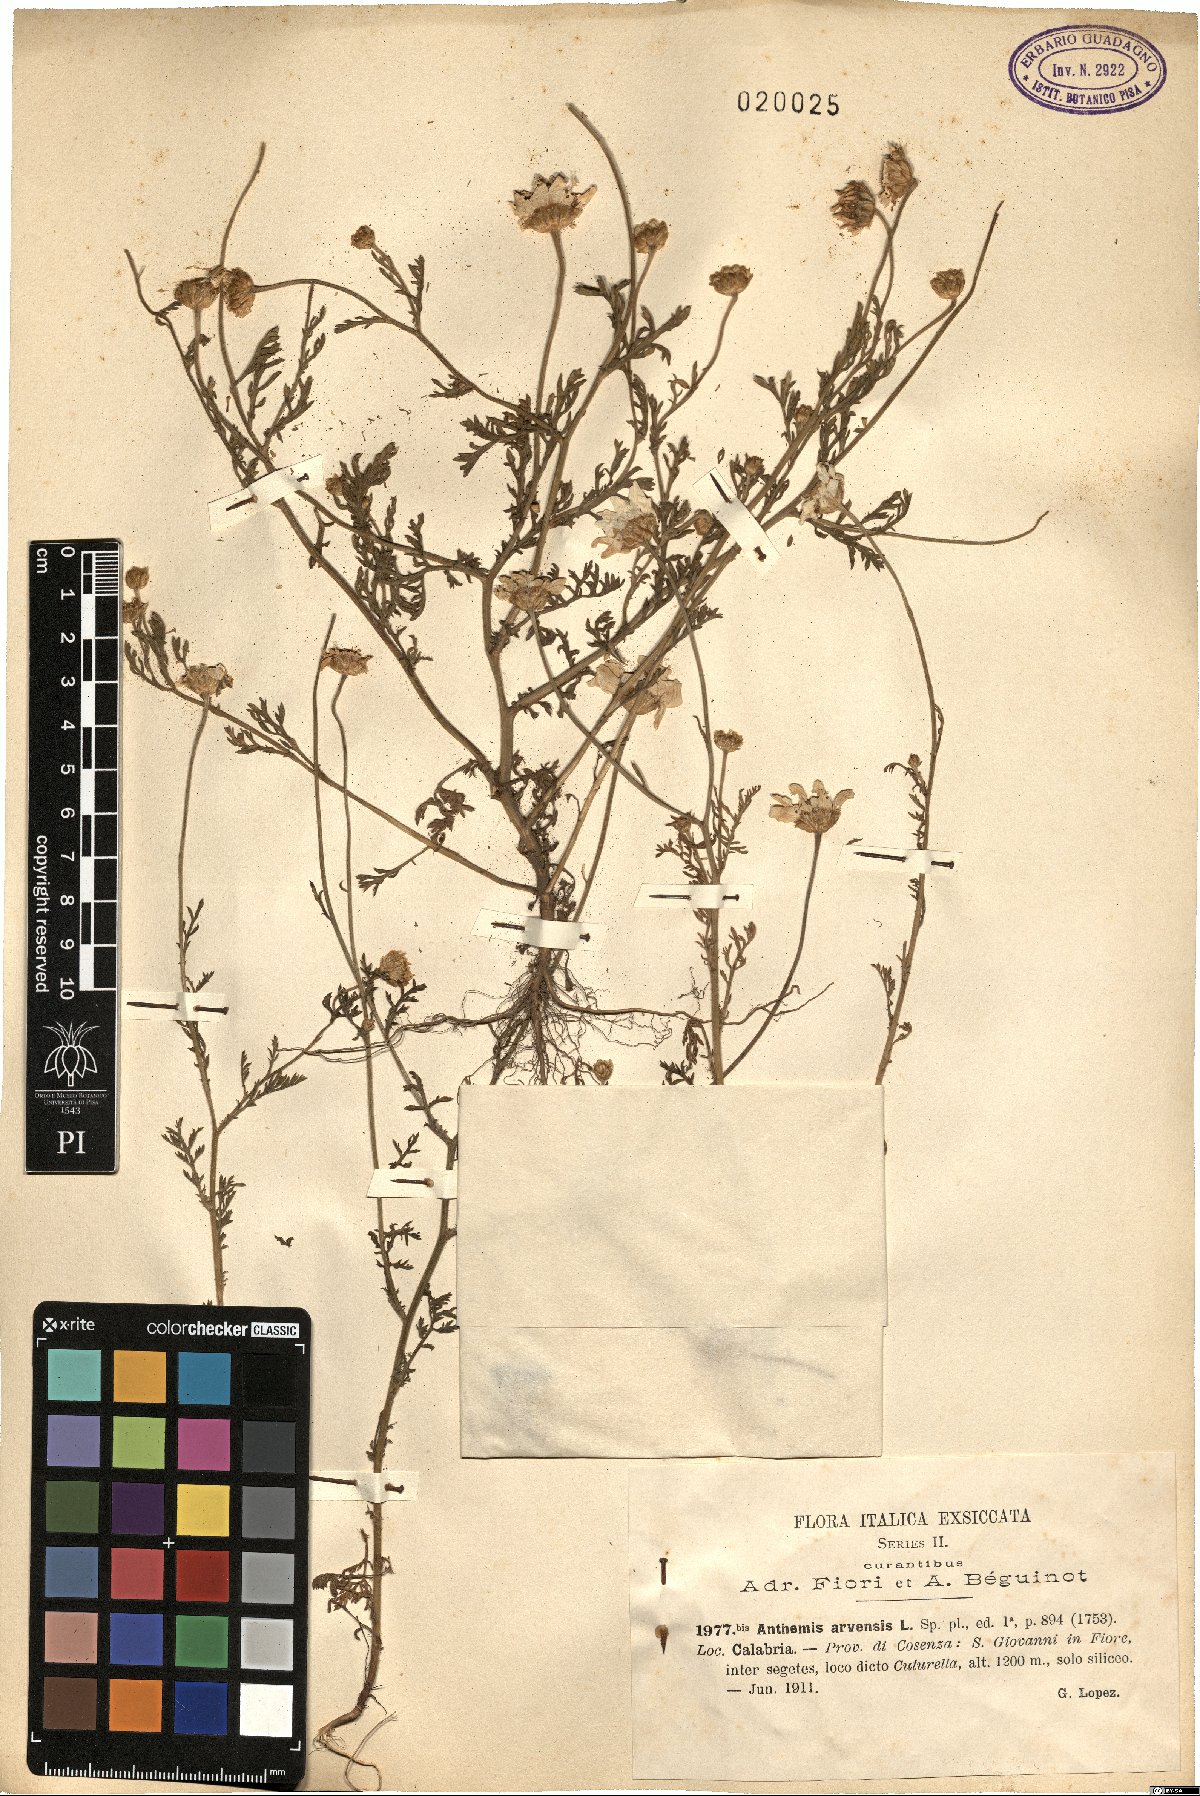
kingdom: Plantae
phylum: Tracheophyta
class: Magnoliopsida
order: Asterales
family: Asteraceae
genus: Anthemis
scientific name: Anthemis arvensis
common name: Corn chamomile
